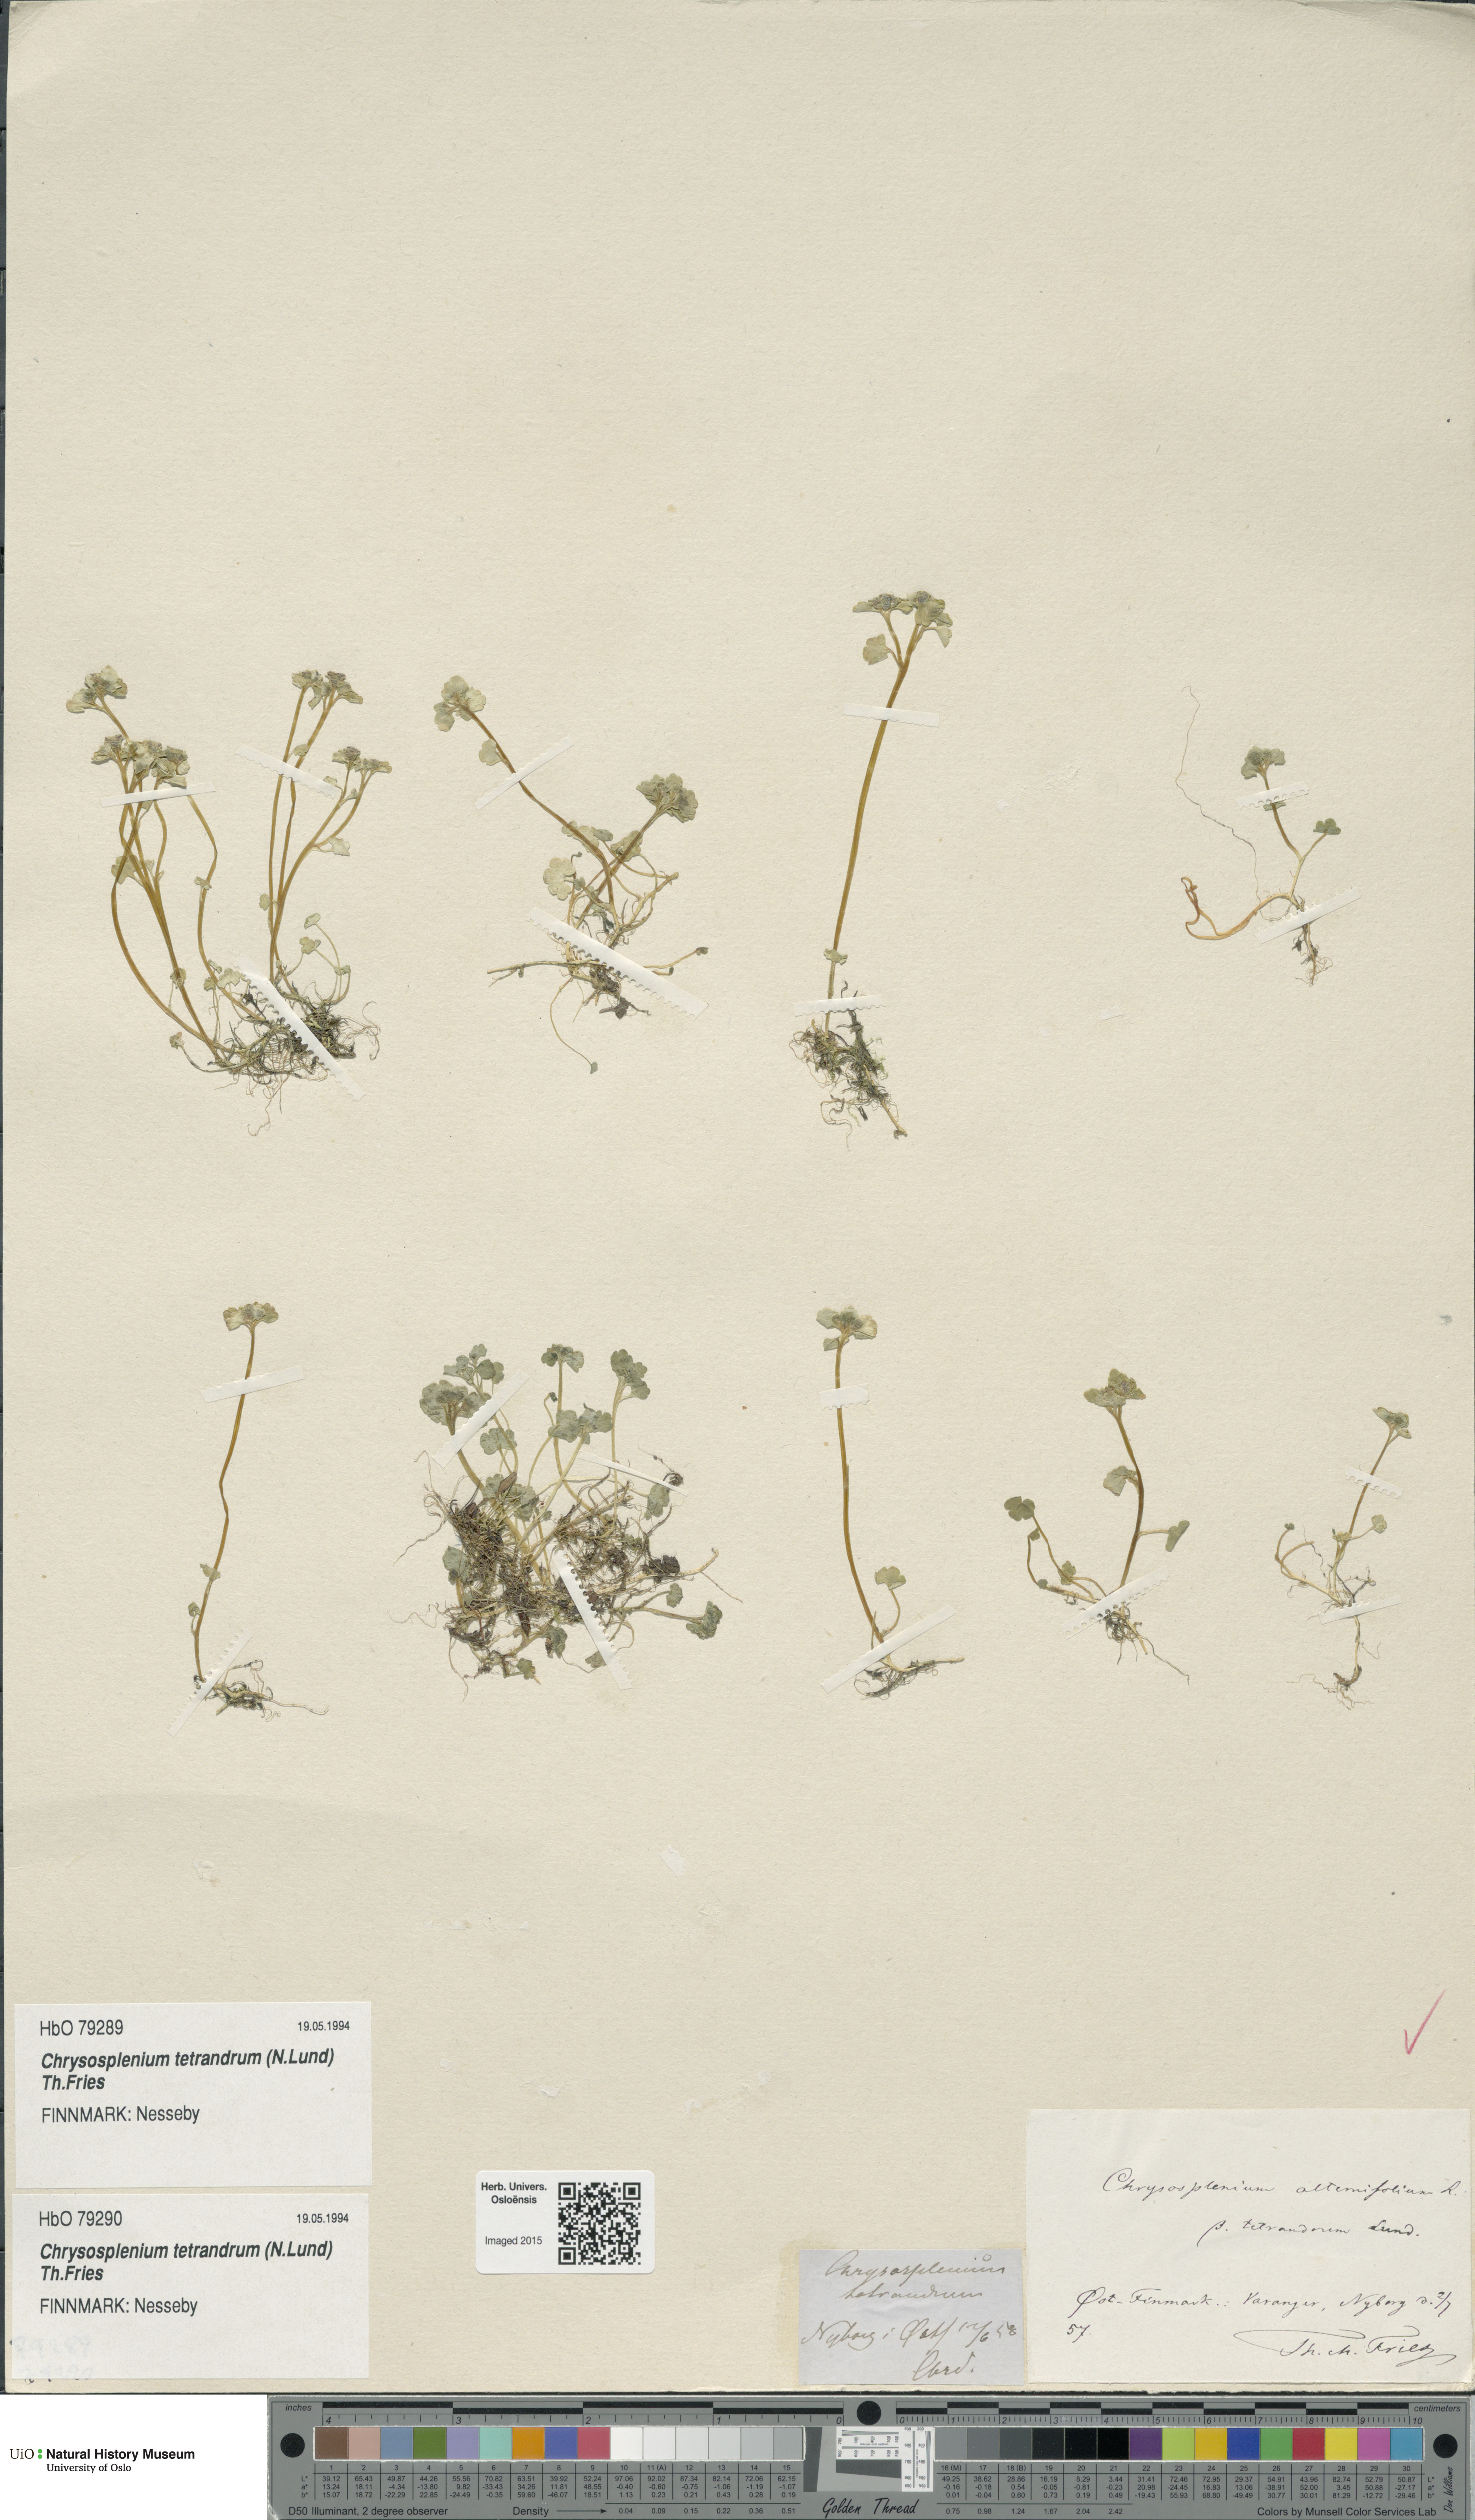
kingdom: Plantae
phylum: Tracheophyta
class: Magnoliopsida
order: Saxifragales
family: Saxifragaceae
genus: Chrysosplenium
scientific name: Chrysosplenium tetrandrum
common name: Green saxifrage
